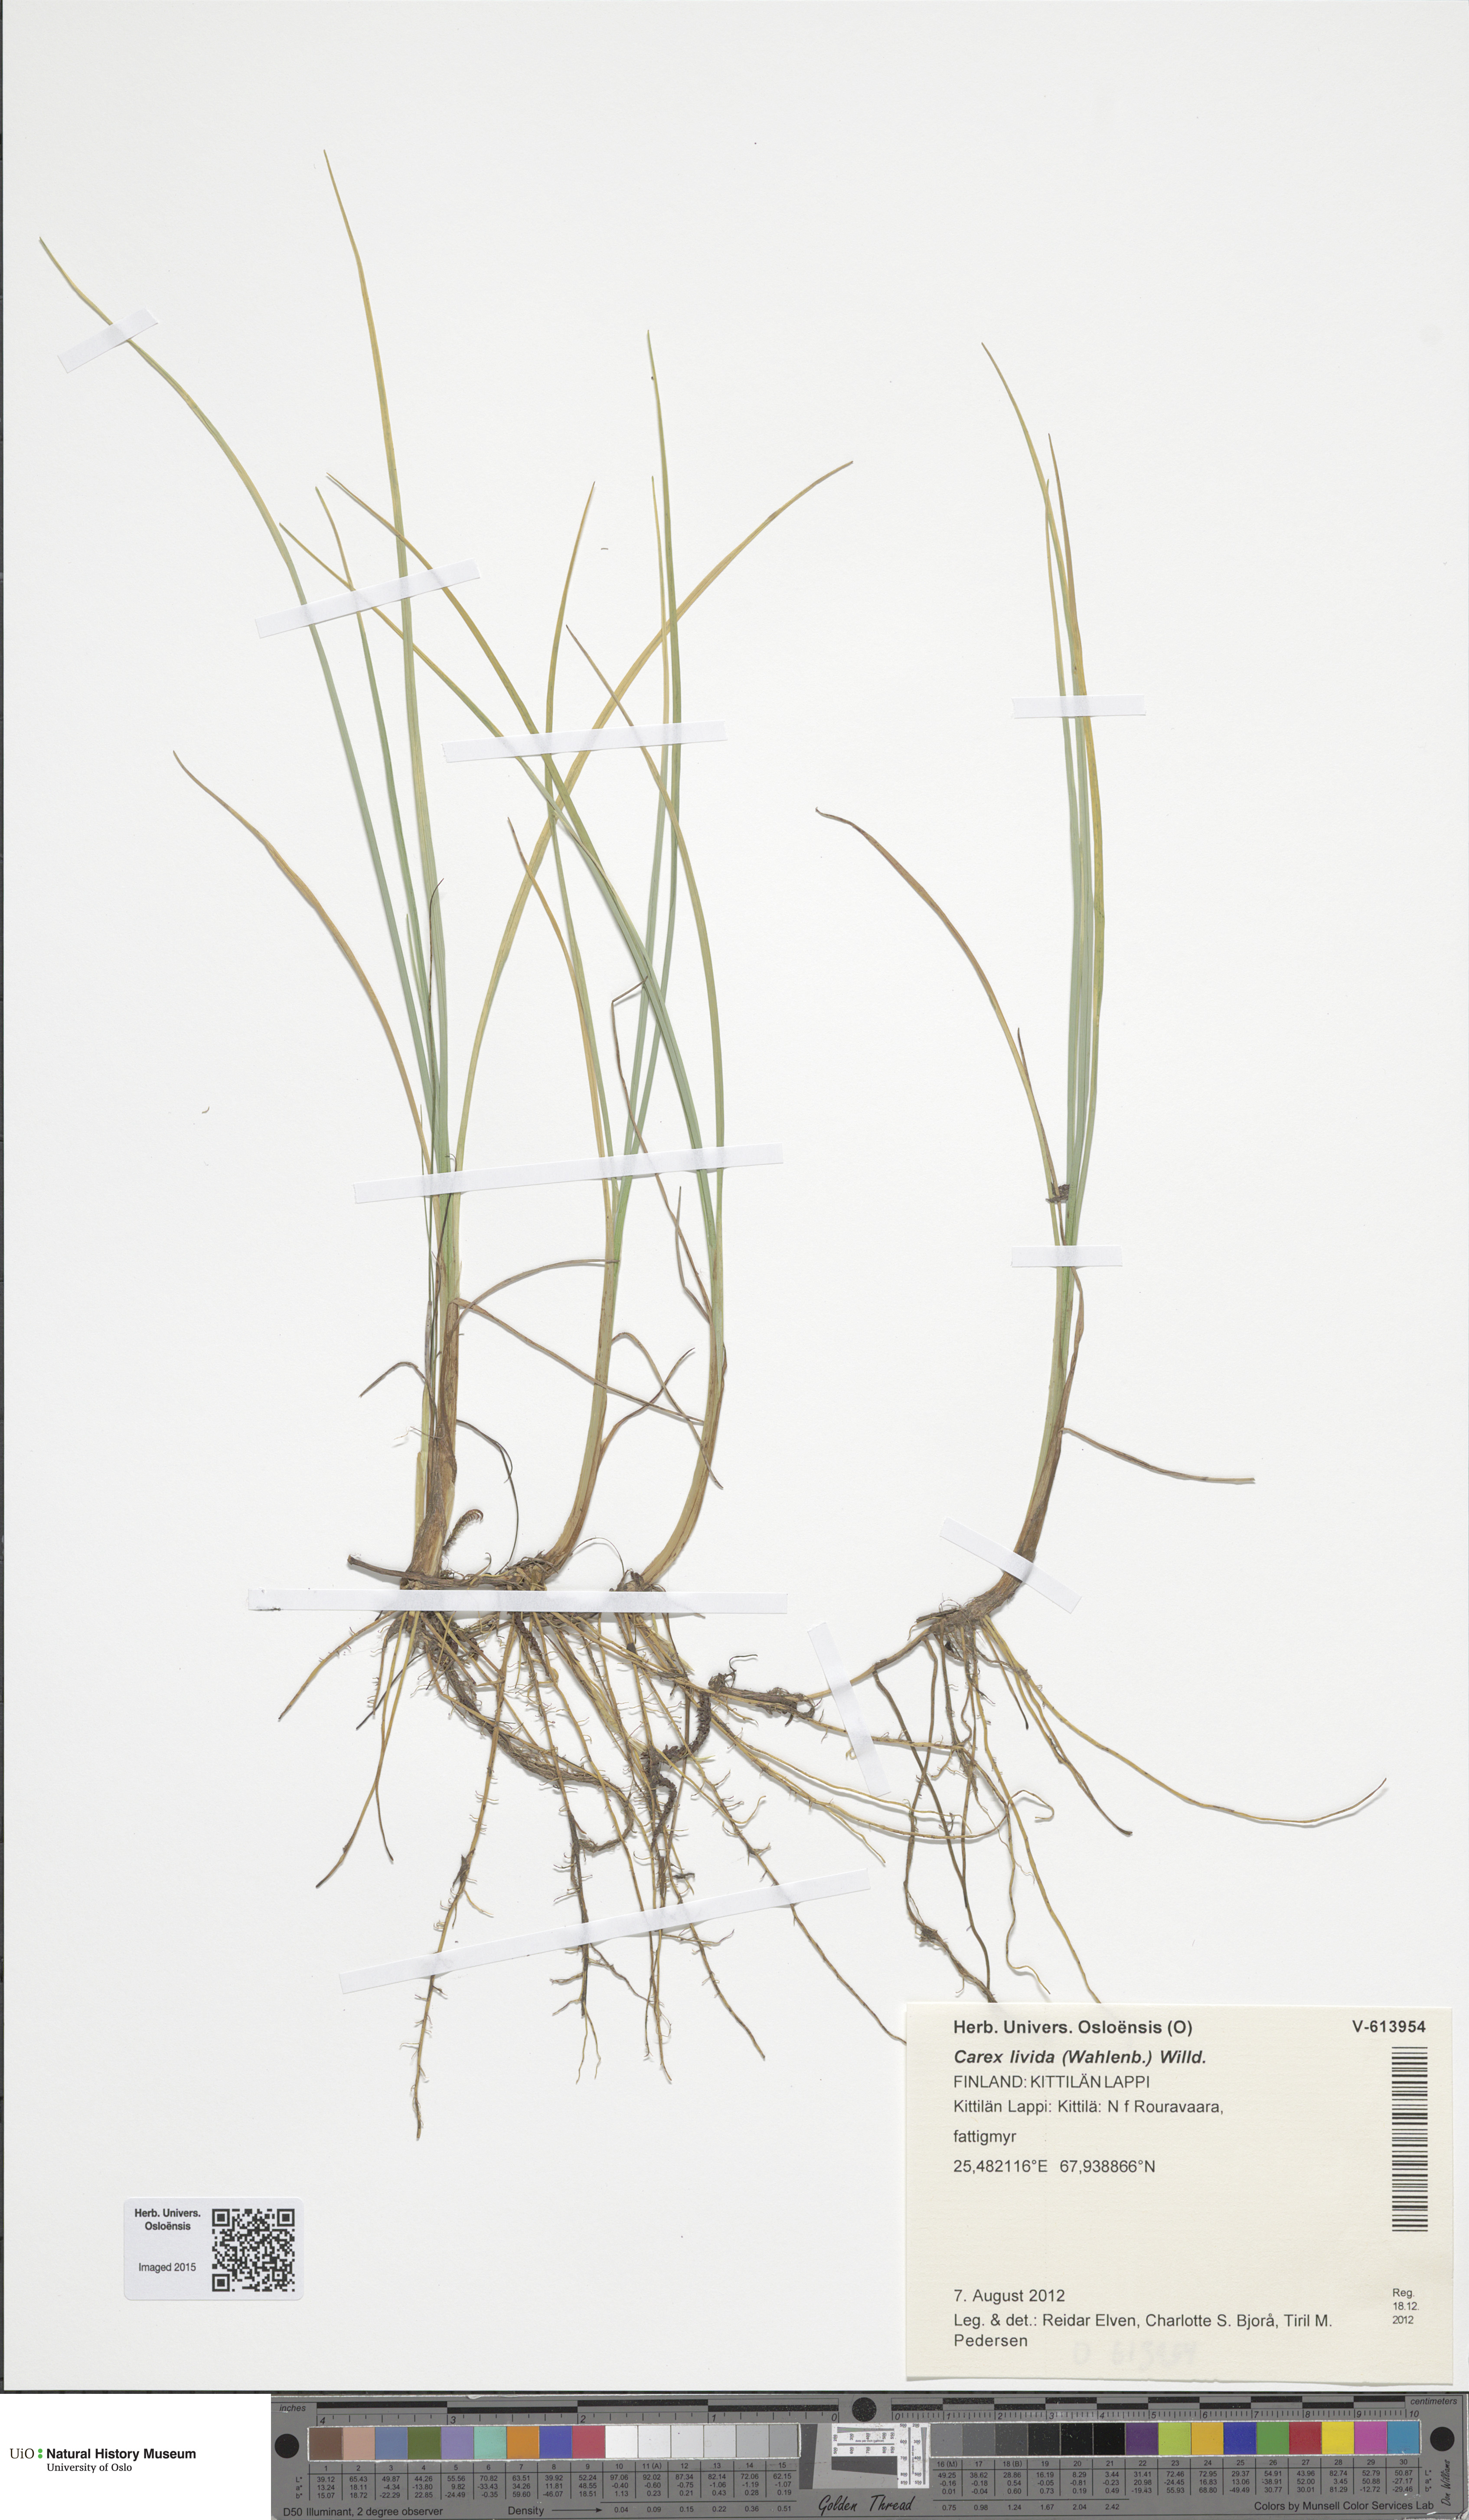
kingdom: Plantae
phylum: Tracheophyta
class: Liliopsida
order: Poales
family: Cyperaceae
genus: Carex
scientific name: Carex livida
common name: Livid sedge
